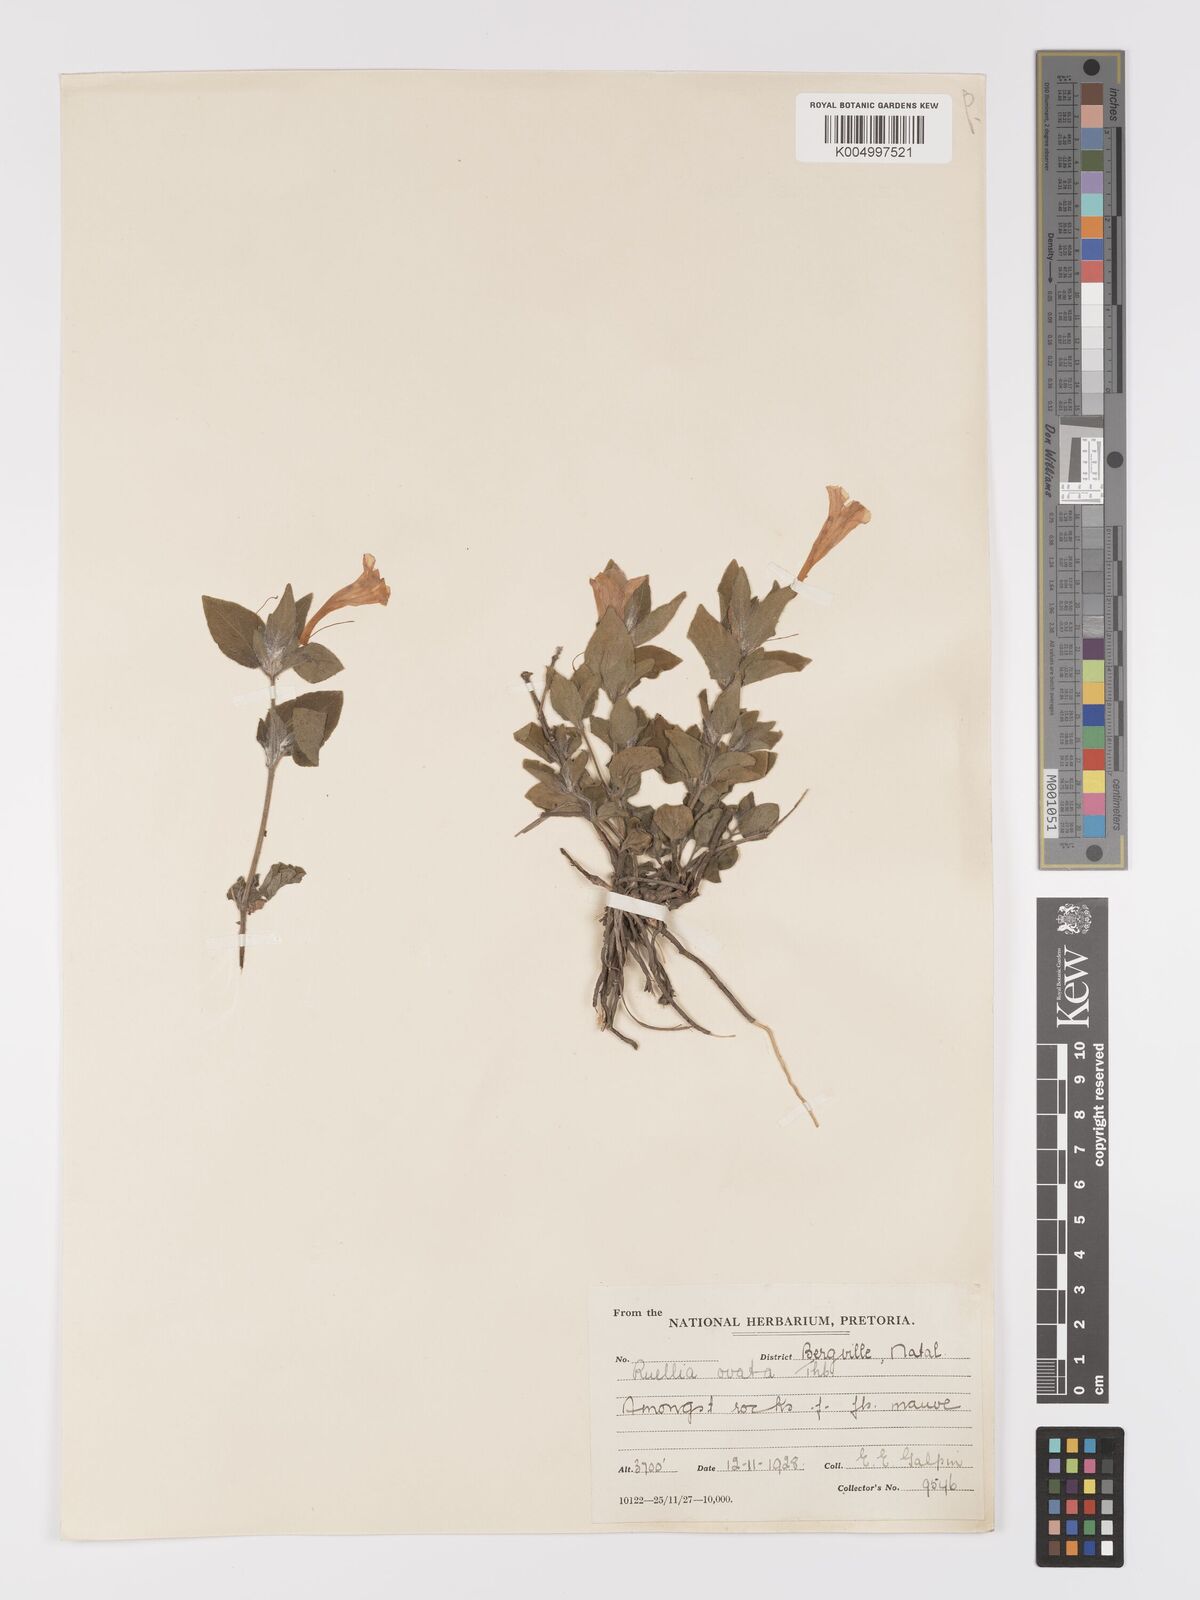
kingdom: Plantae
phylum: Tracheophyta
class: Magnoliopsida
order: Lamiales
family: Acanthaceae
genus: Ruellia
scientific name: Ruellia
